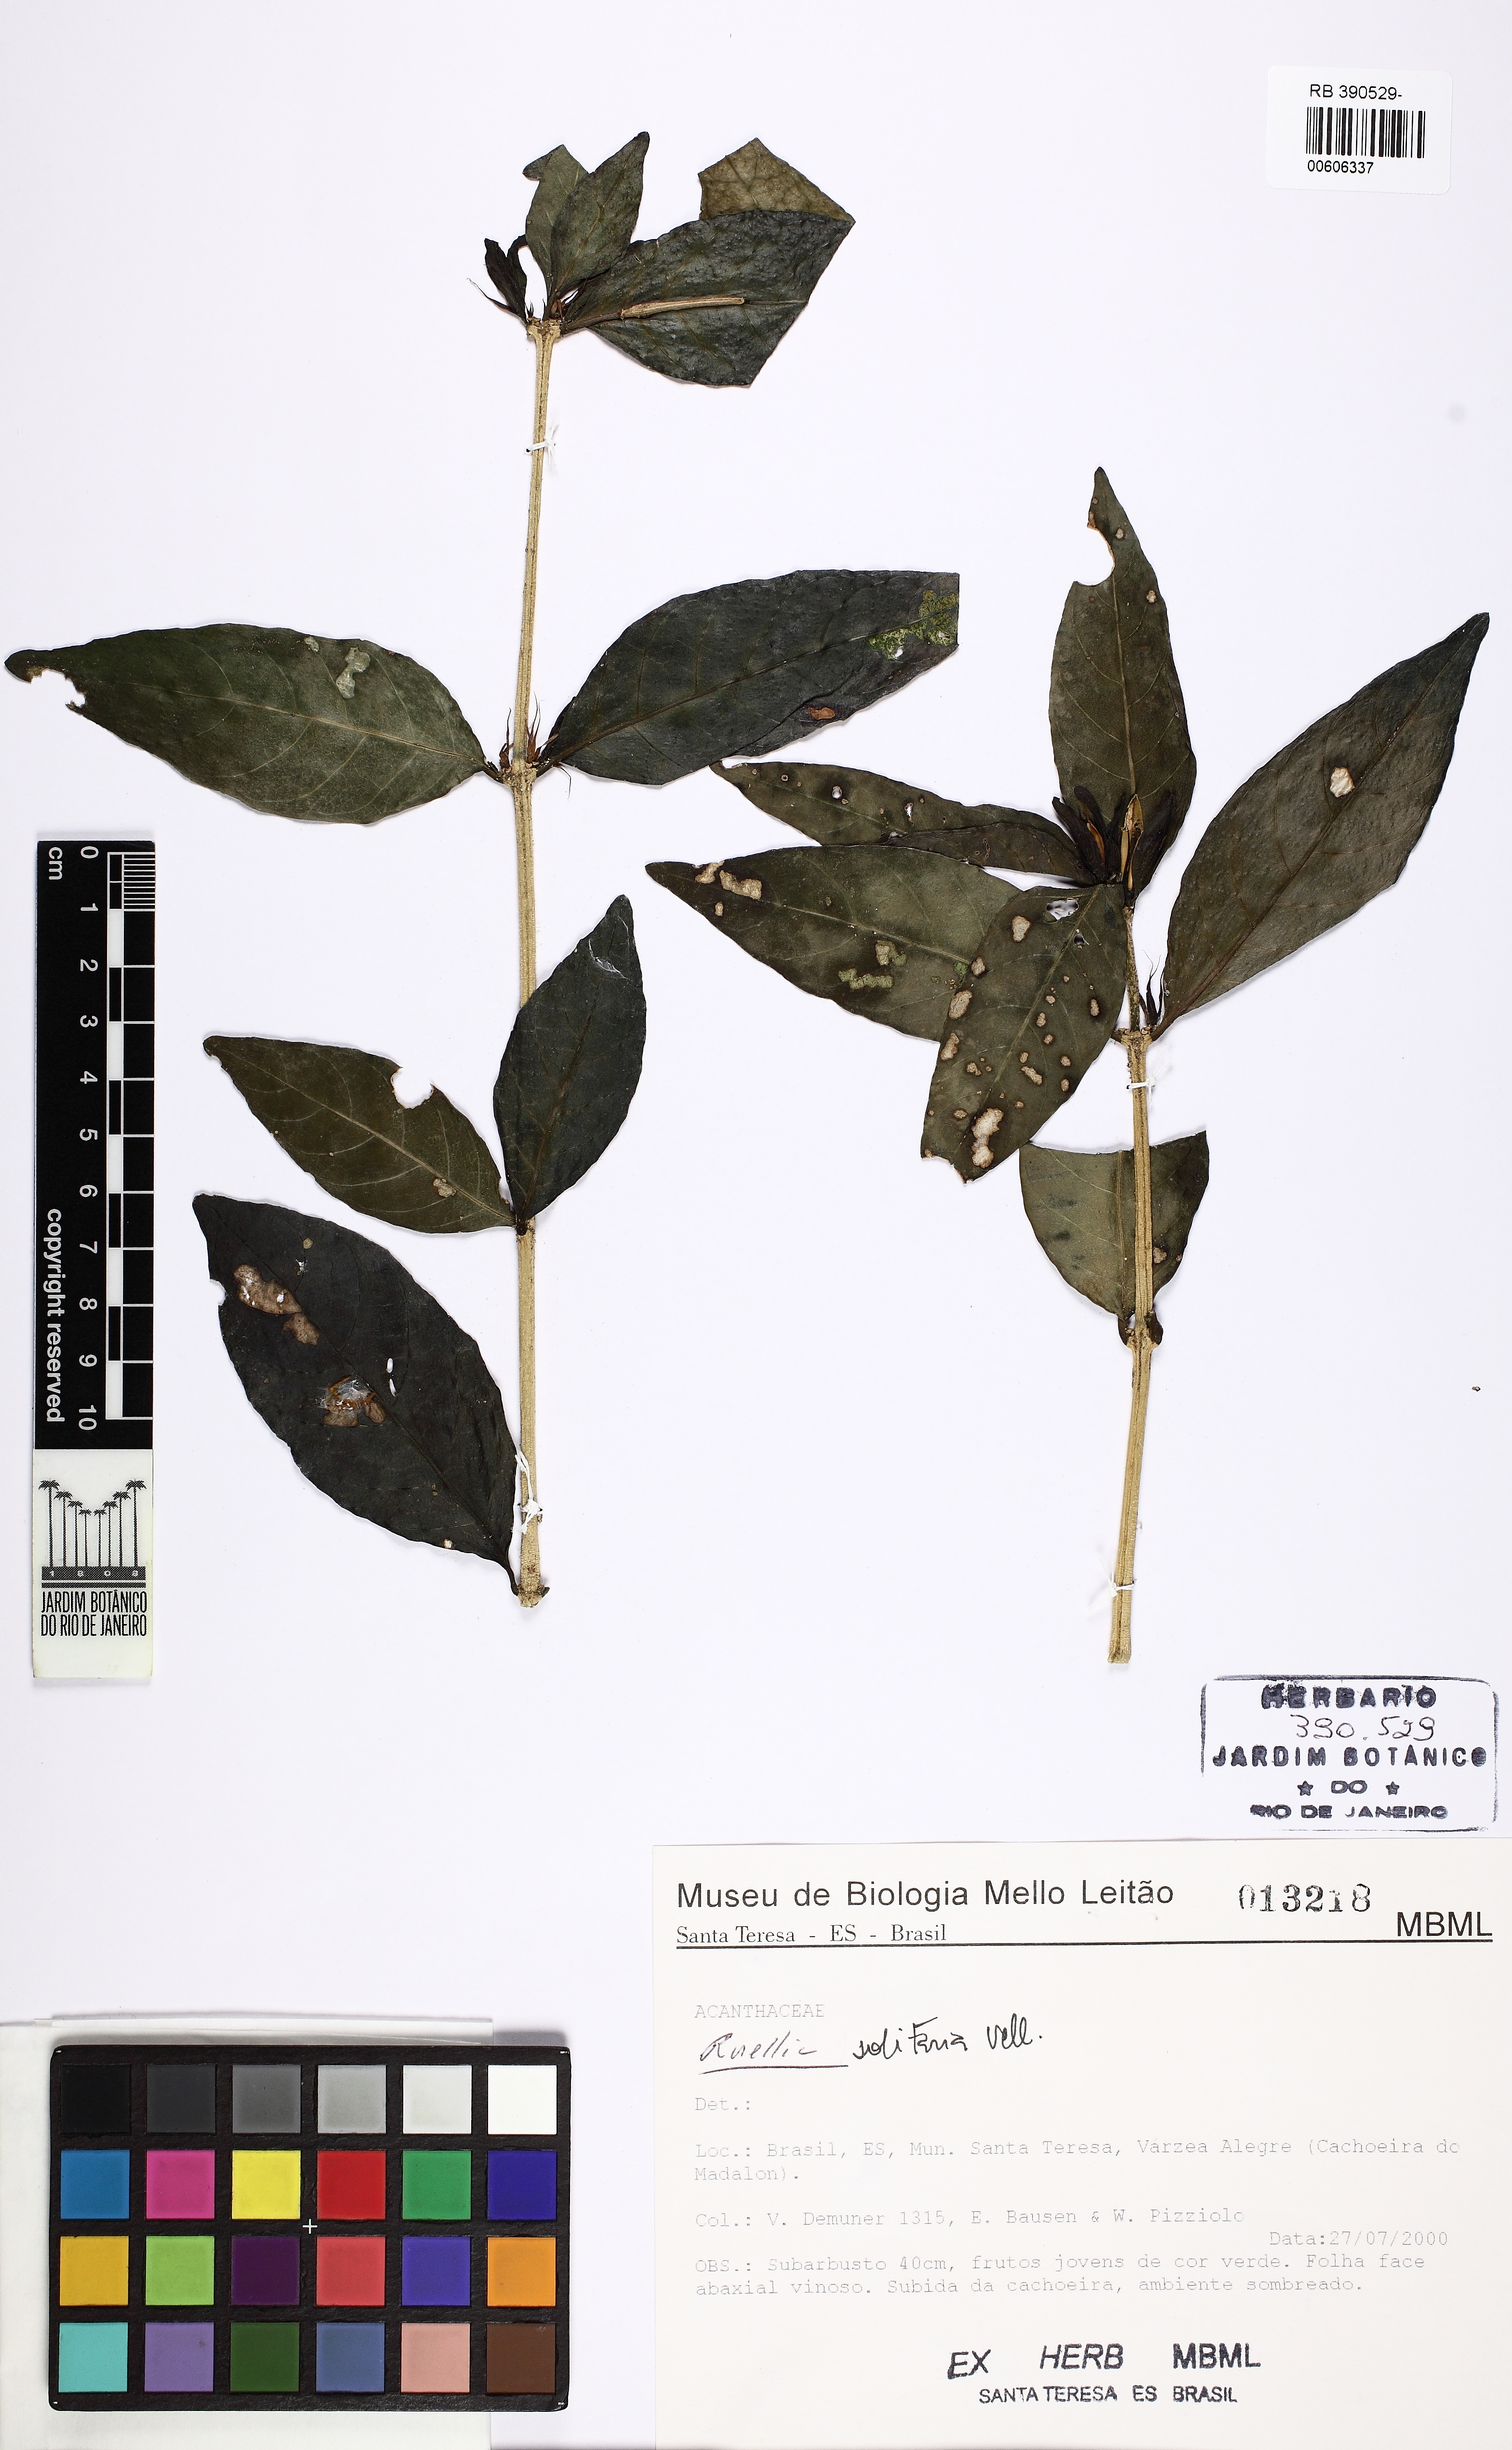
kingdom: Plantae
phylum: Tracheophyta
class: Magnoliopsida
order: Lamiales
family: Acanthaceae
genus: Ruellia
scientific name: Ruellia solitaria
